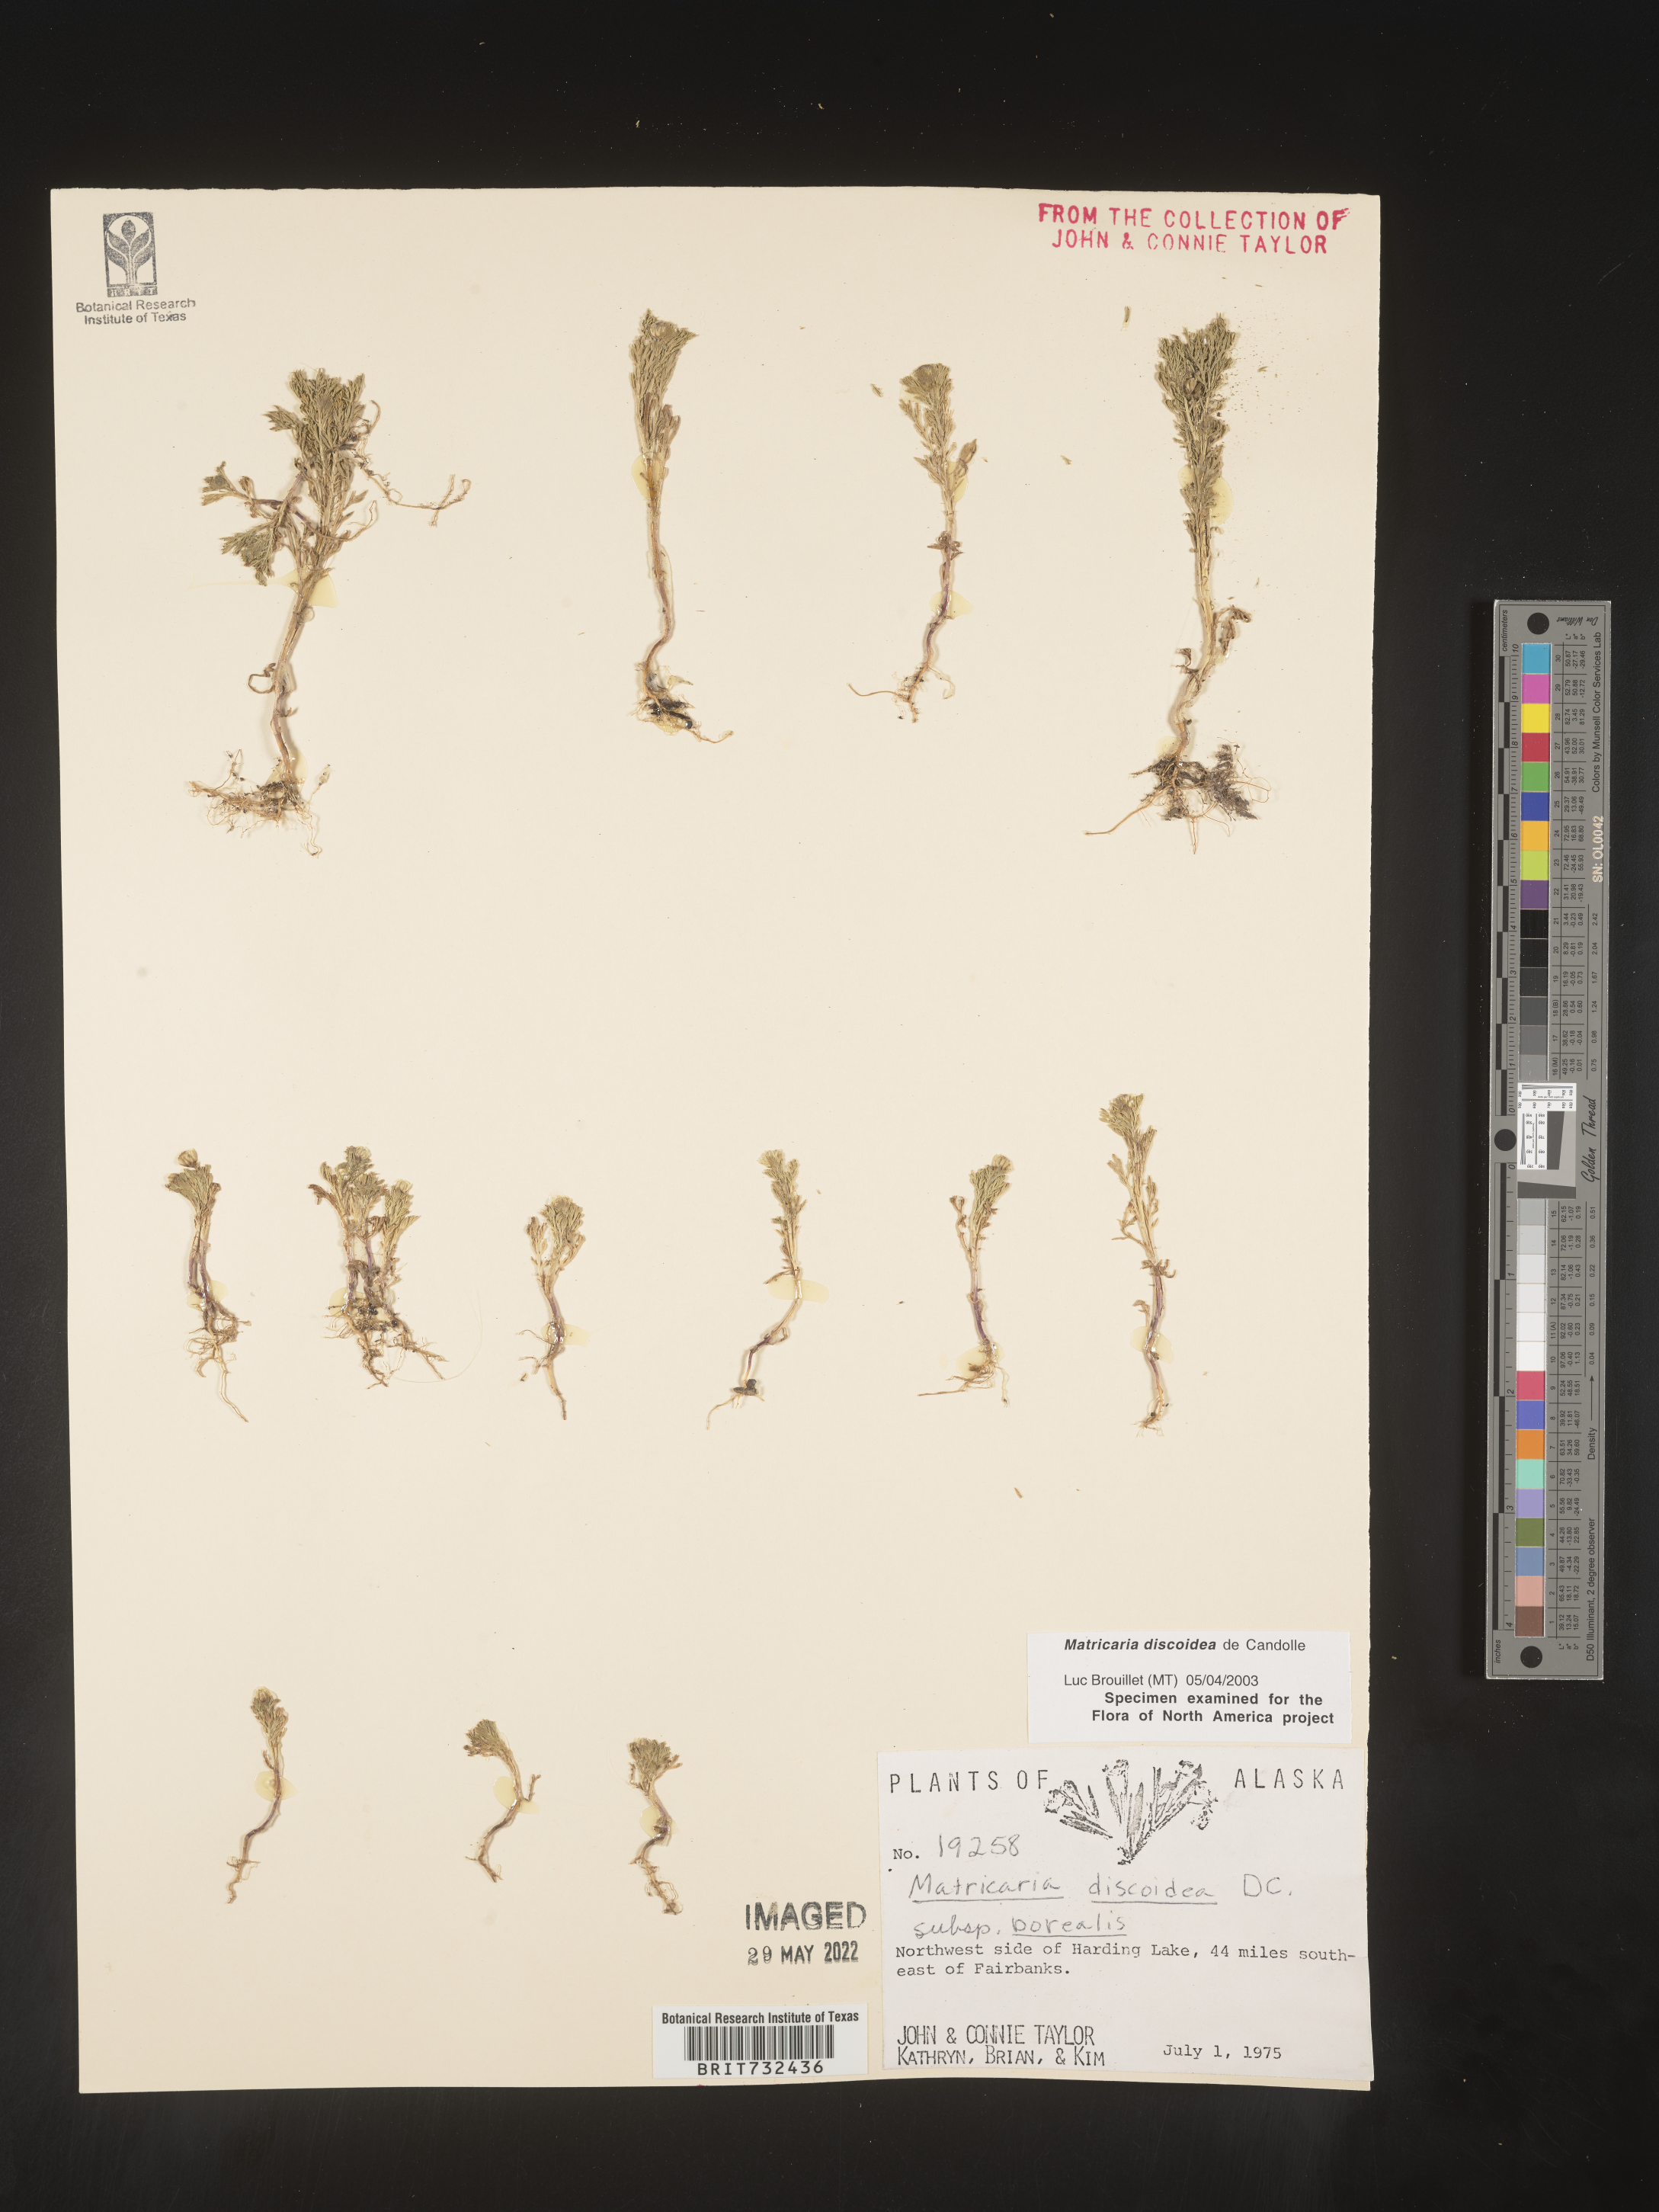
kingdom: Plantae
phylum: Tracheophyta
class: Magnoliopsida
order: Asterales
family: Asteraceae
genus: Matricaria
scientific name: Matricaria discoidea
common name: Disc mayweed
